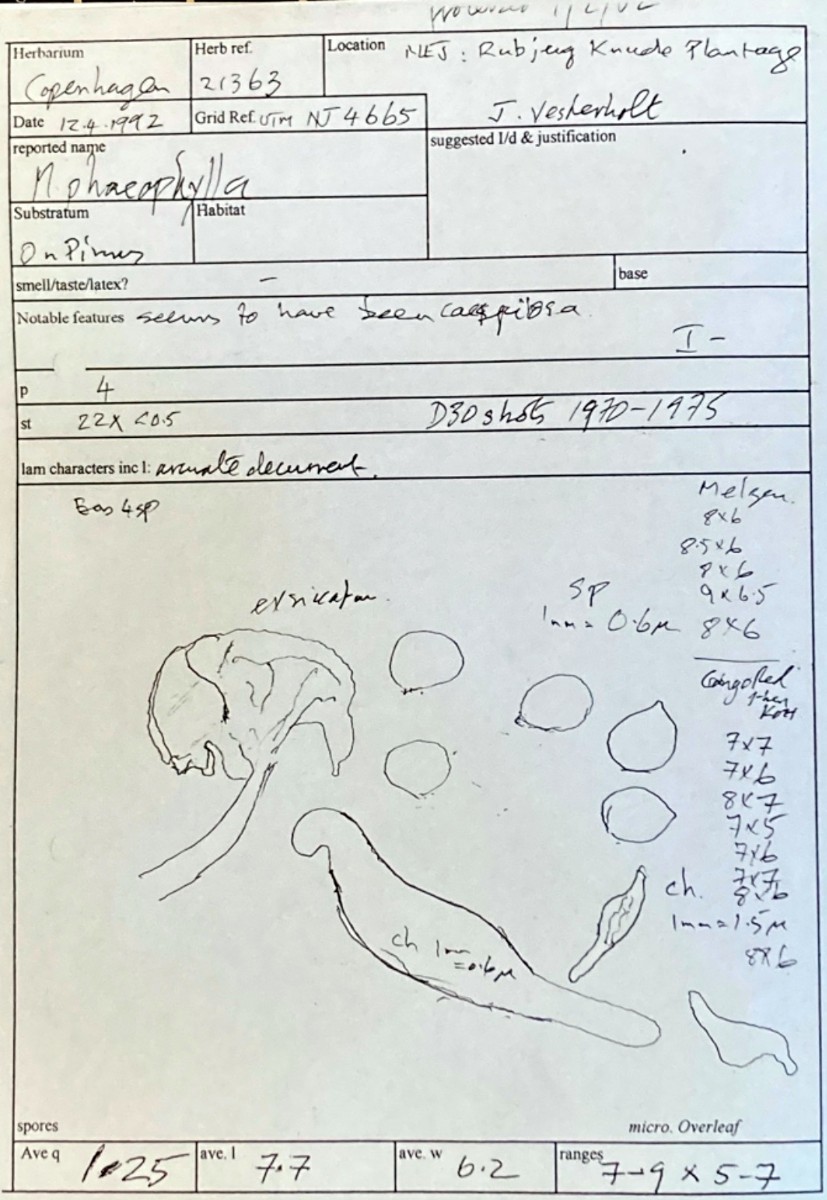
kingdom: Fungi
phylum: Basidiomycota
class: Agaricomycetes
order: Agaricales
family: Porotheleaceae
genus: Phloeomana
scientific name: Phloeomana clavata
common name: brunbladet huesvamp
